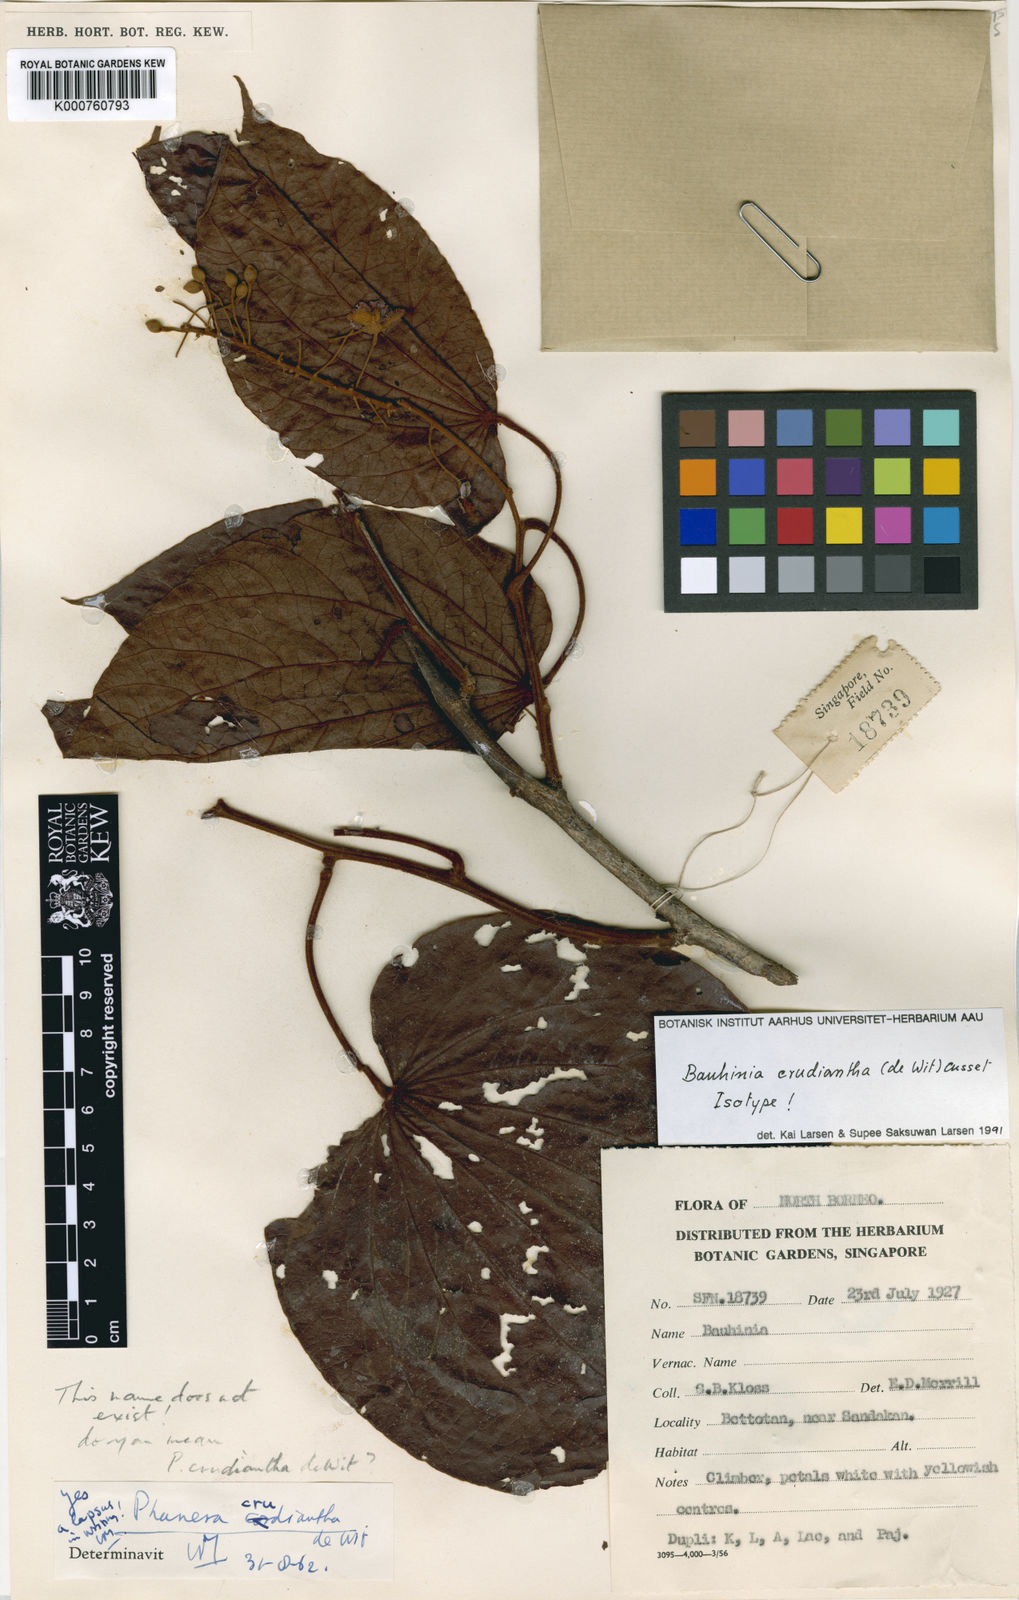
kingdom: Plantae
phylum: Tracheophyta
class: Magnoliopsida
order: Fabales
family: Fabaceae
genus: Phanera
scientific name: Phanera crudiantha
